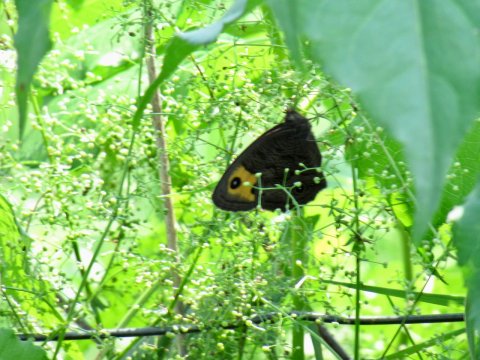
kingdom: Animalia
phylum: Arthropoda
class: Insecta
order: Lepidoptera
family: Nymphalidae
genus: Cercyonis
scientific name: Cercyonis pegala
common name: Common Wood-Nymph
